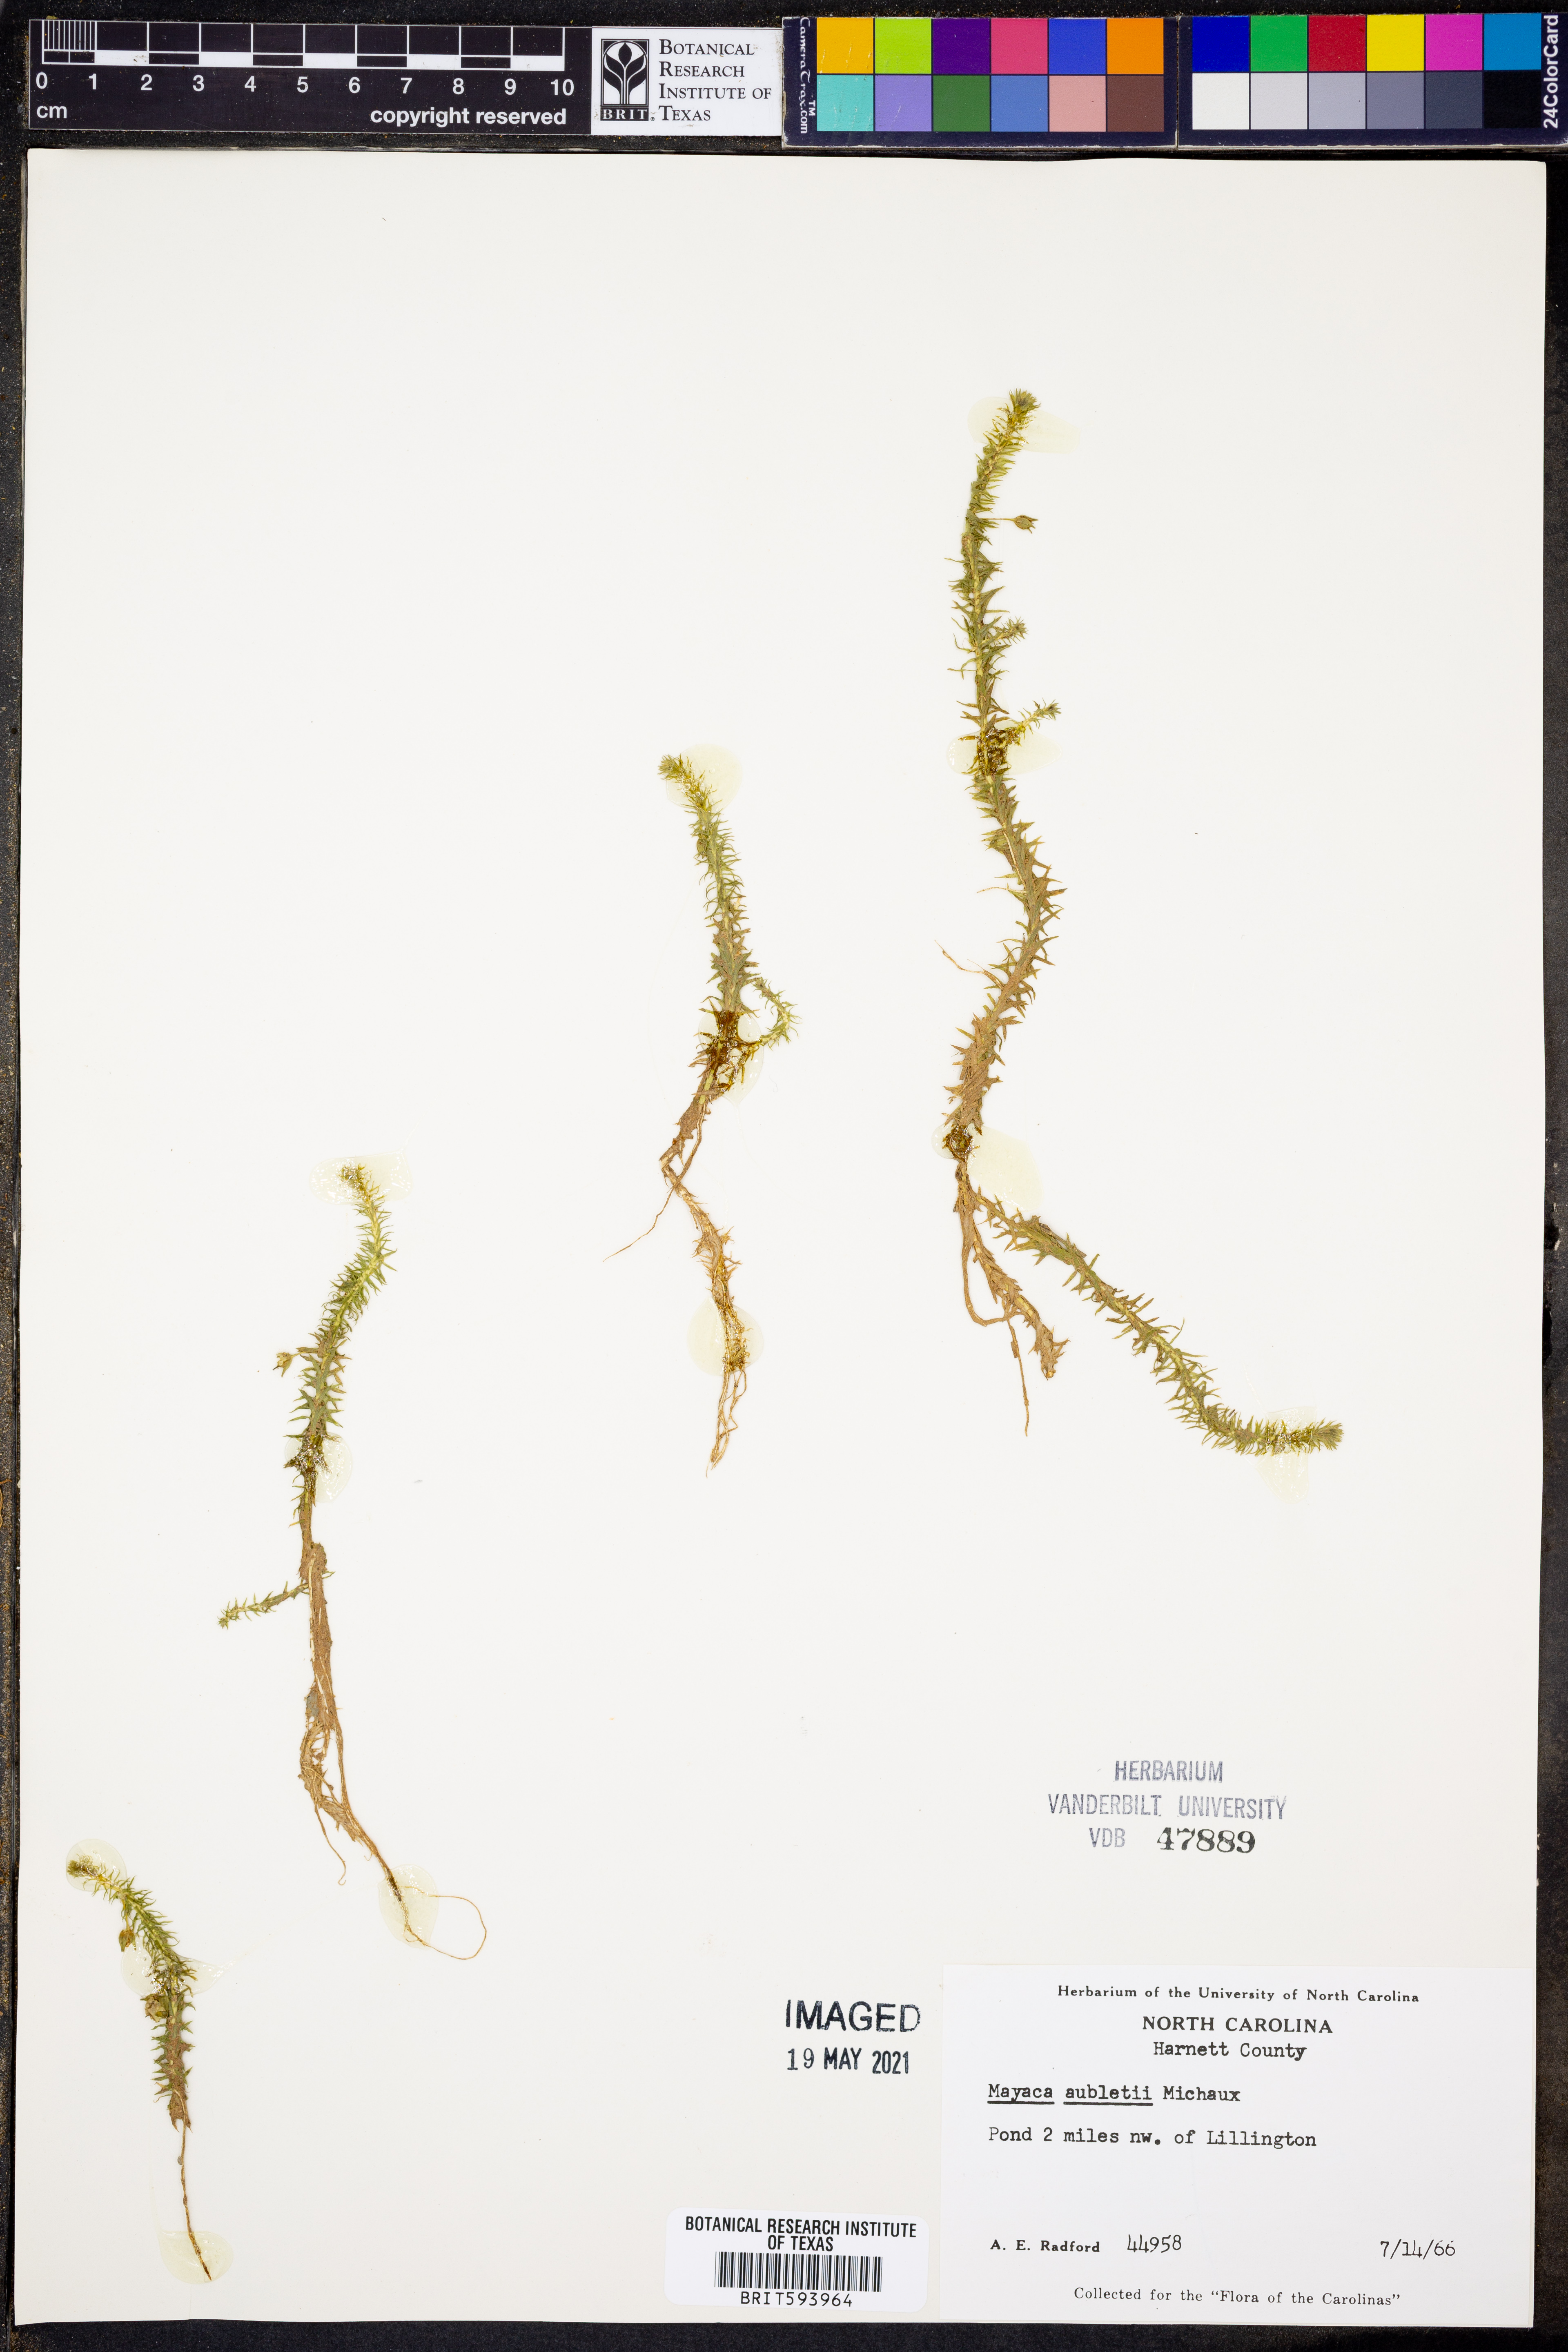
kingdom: Plantae
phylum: Tracheophyta
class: Liliopsida
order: Poales
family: Mayacaceae
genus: Mayaca
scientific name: Mayaca fluviatilis
